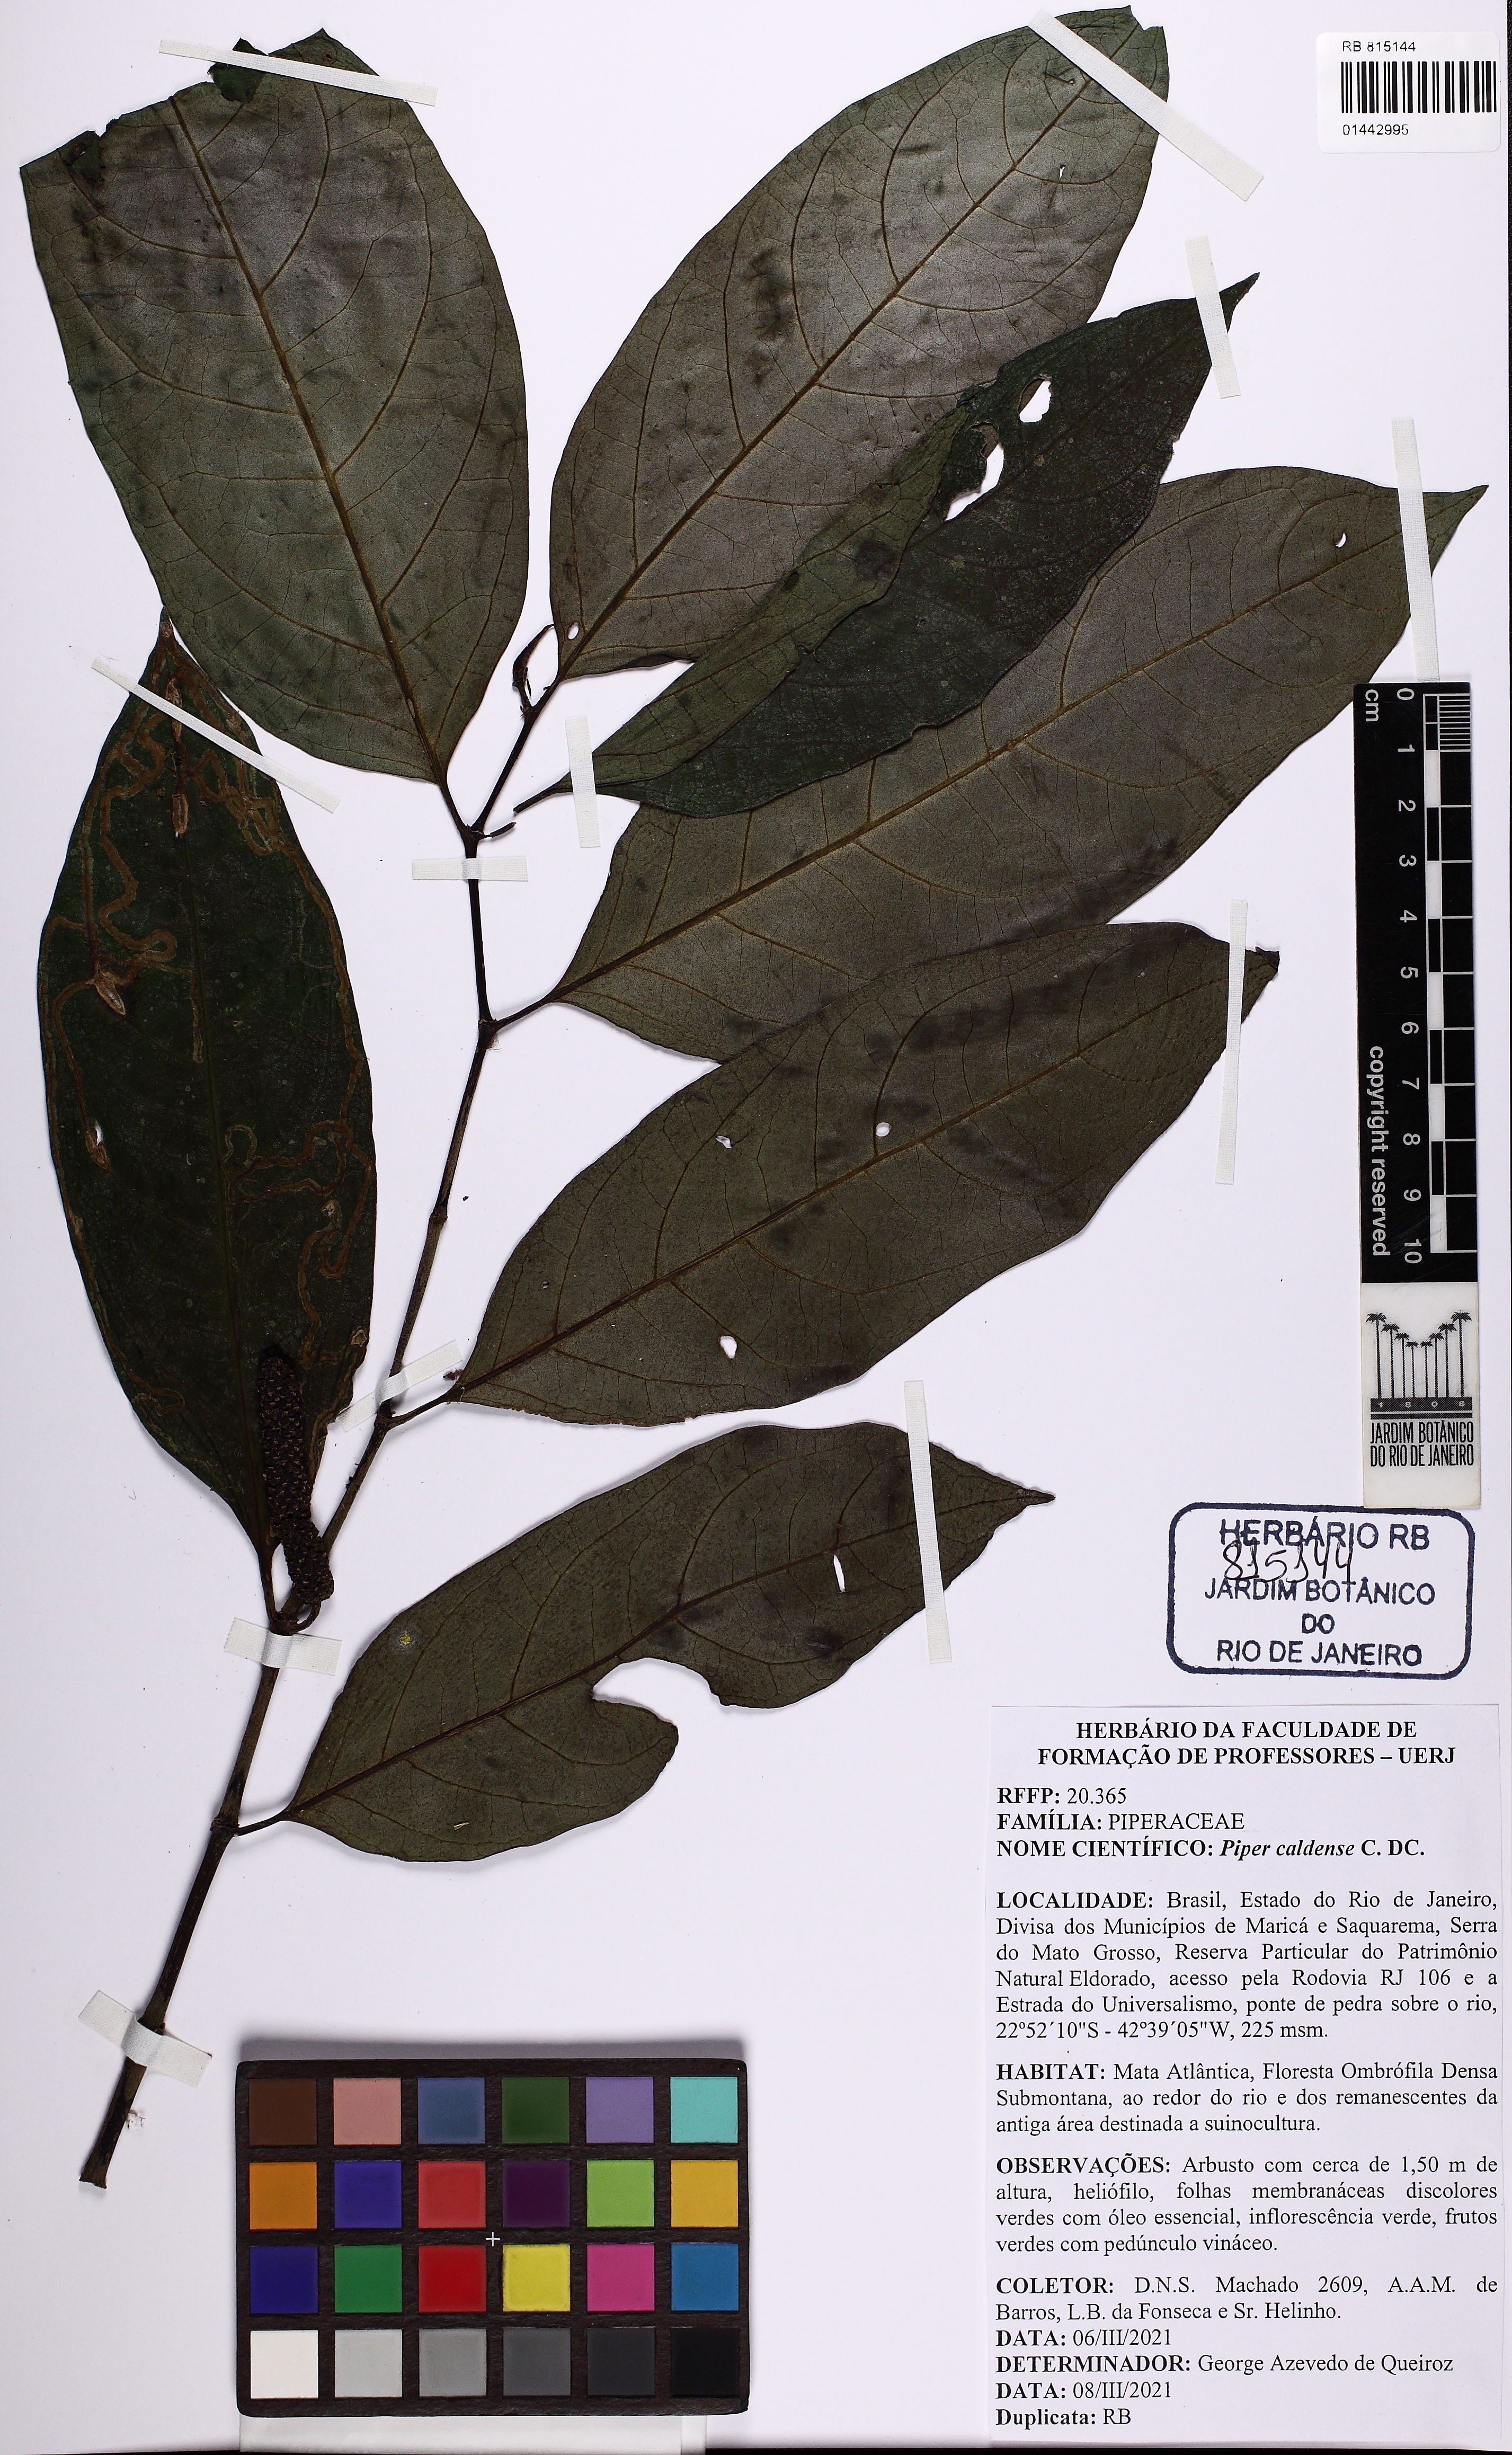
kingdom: Plantae
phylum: Tracheophyta
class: Magnoliopsida
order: Piperales
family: Piperaceae
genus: Piper
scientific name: Piper caldense
